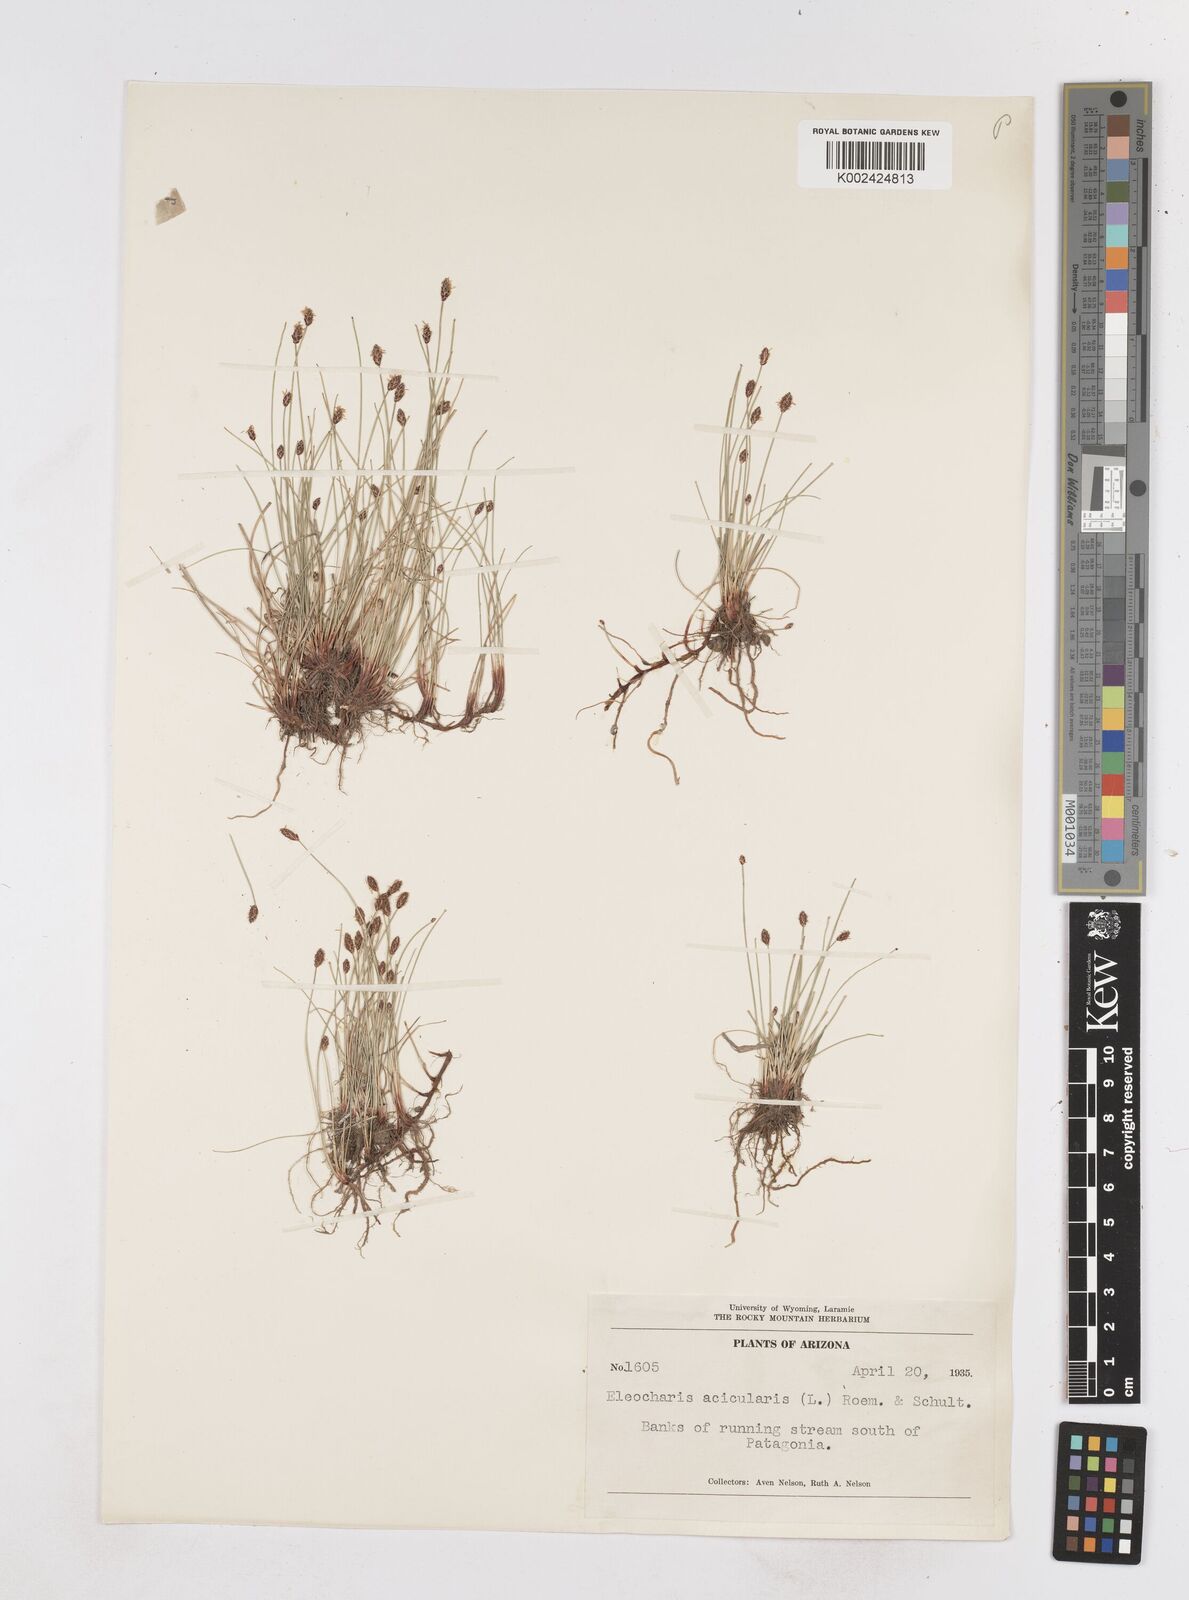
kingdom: Plantae
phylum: Tracheophyta
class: Liliopsida
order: Poales
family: Cyperaceae
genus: Eleocharis
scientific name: Eleocharis acicularis
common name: Needle spike-rush
